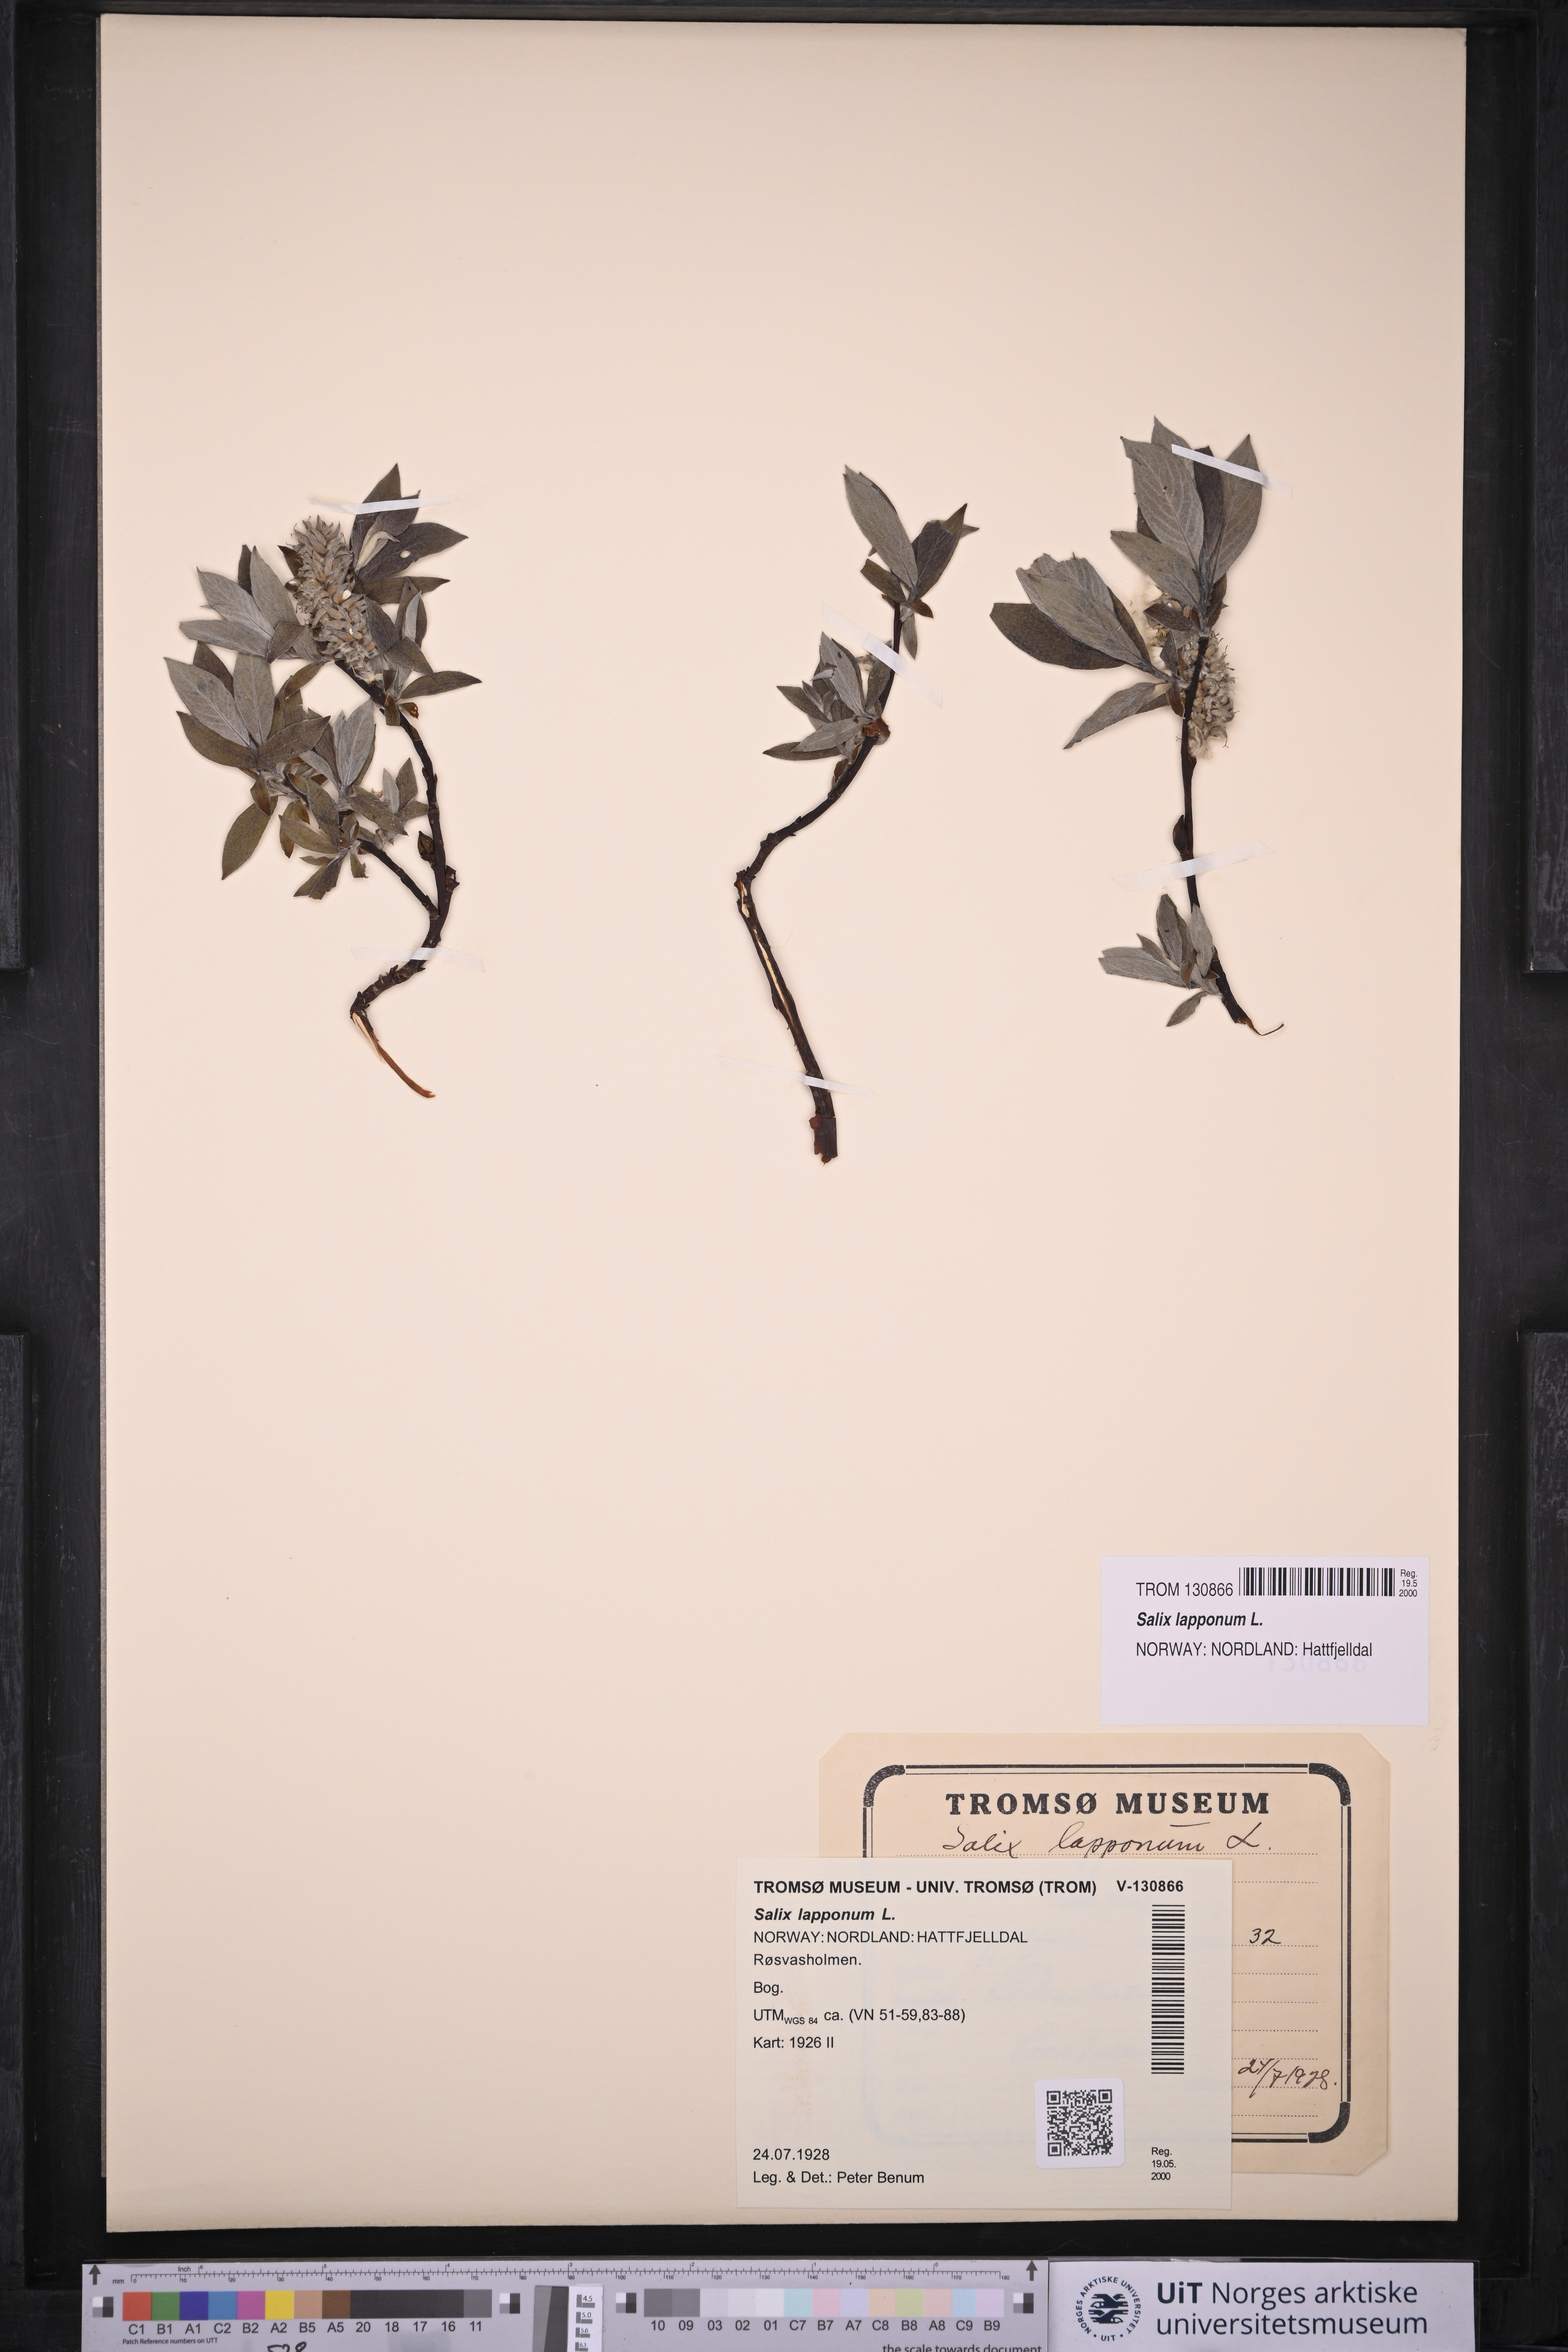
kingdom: Plantae
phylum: Tracheophyta
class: Magnoliopsida
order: Malpighiales
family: Salicaceae
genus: Salix
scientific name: Salix lapponum
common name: Downy willow
